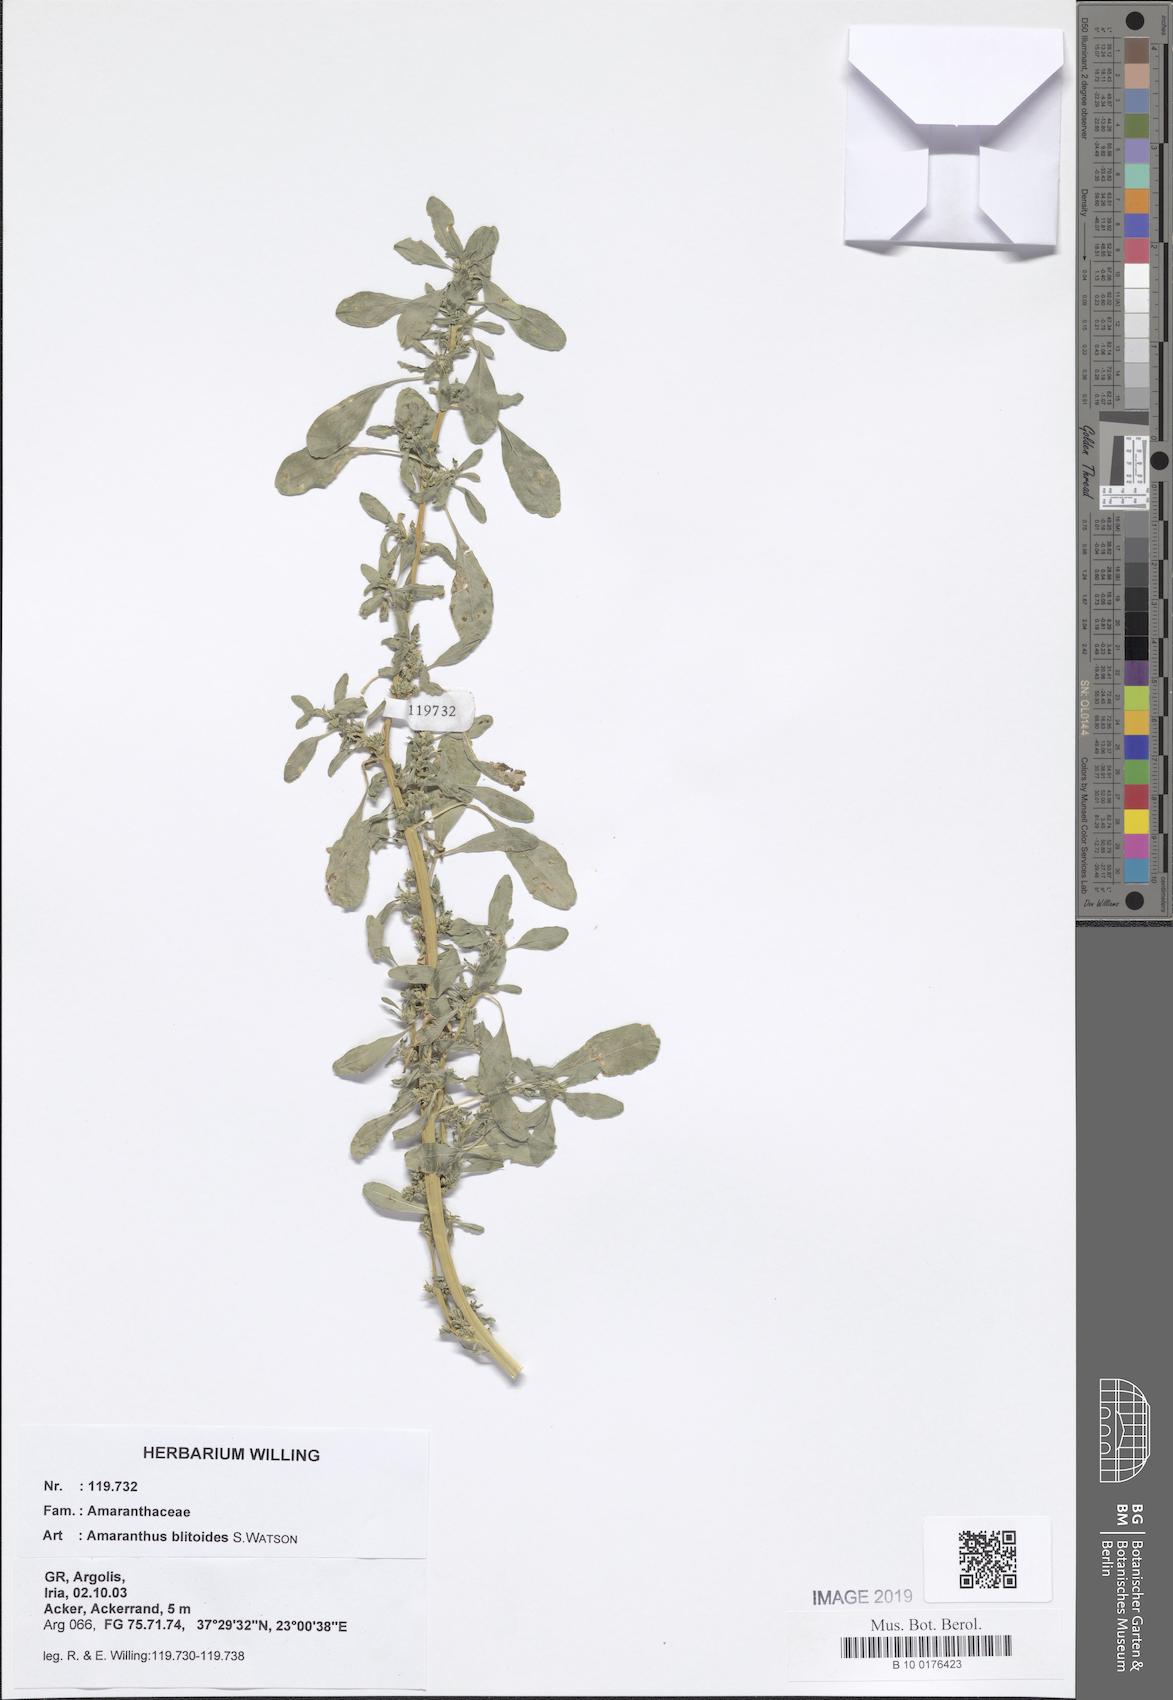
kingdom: Plantae
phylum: Tracheophyta
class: Magnoliopsida
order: Caryophyllales
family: Amaranthaceae
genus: Amaranthus
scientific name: Amaranthus blitoides
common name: Prostrate pigweed
